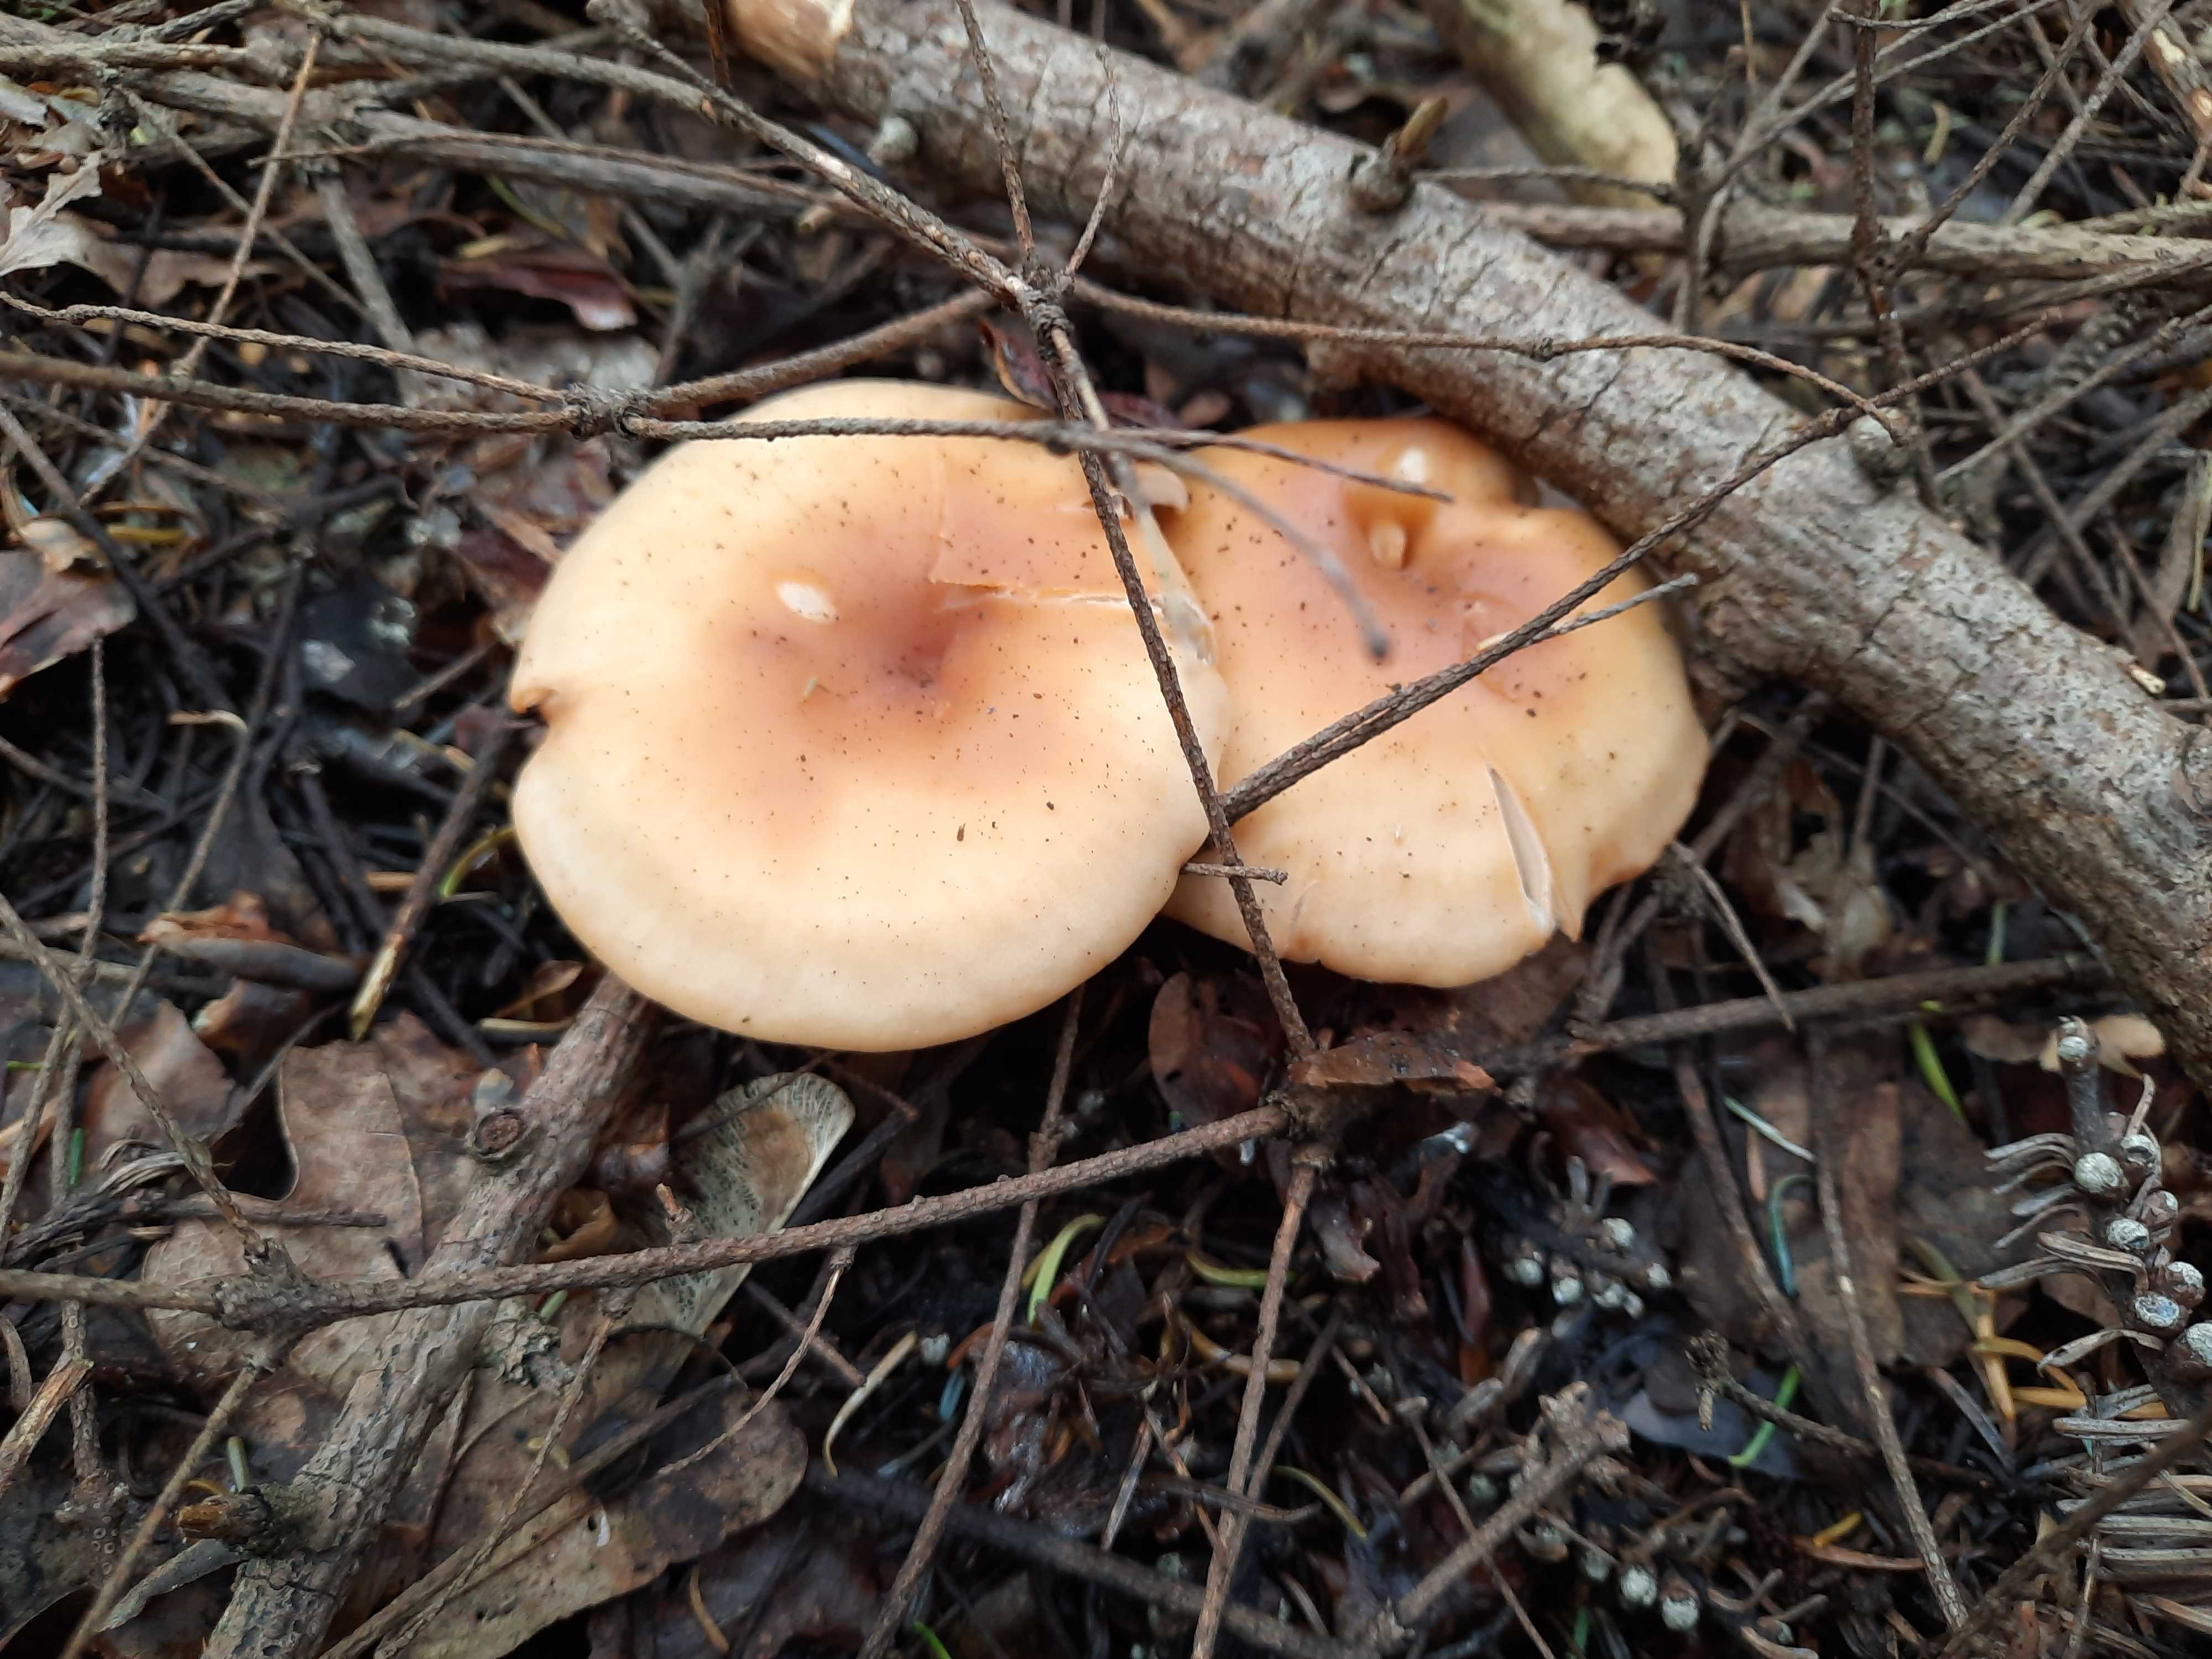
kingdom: Fungi
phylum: Basidiomycota
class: Agaricomycetes
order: Agaricales
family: Tricholomataceae
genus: Paralepista
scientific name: Paralepista flaccida
